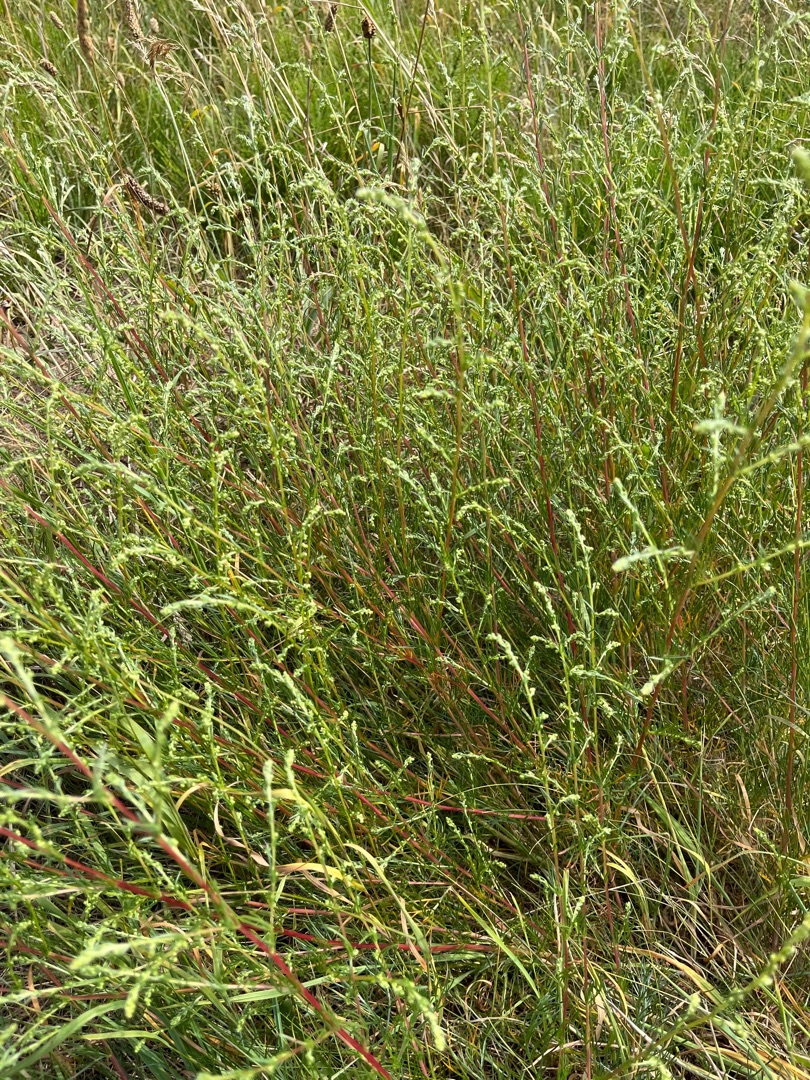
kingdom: Plantae
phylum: Tracheophyta
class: Magnoliopsida
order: Asterales
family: Asteraceae
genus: Artemisia
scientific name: Artemisia campestris
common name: Mark-bynke
